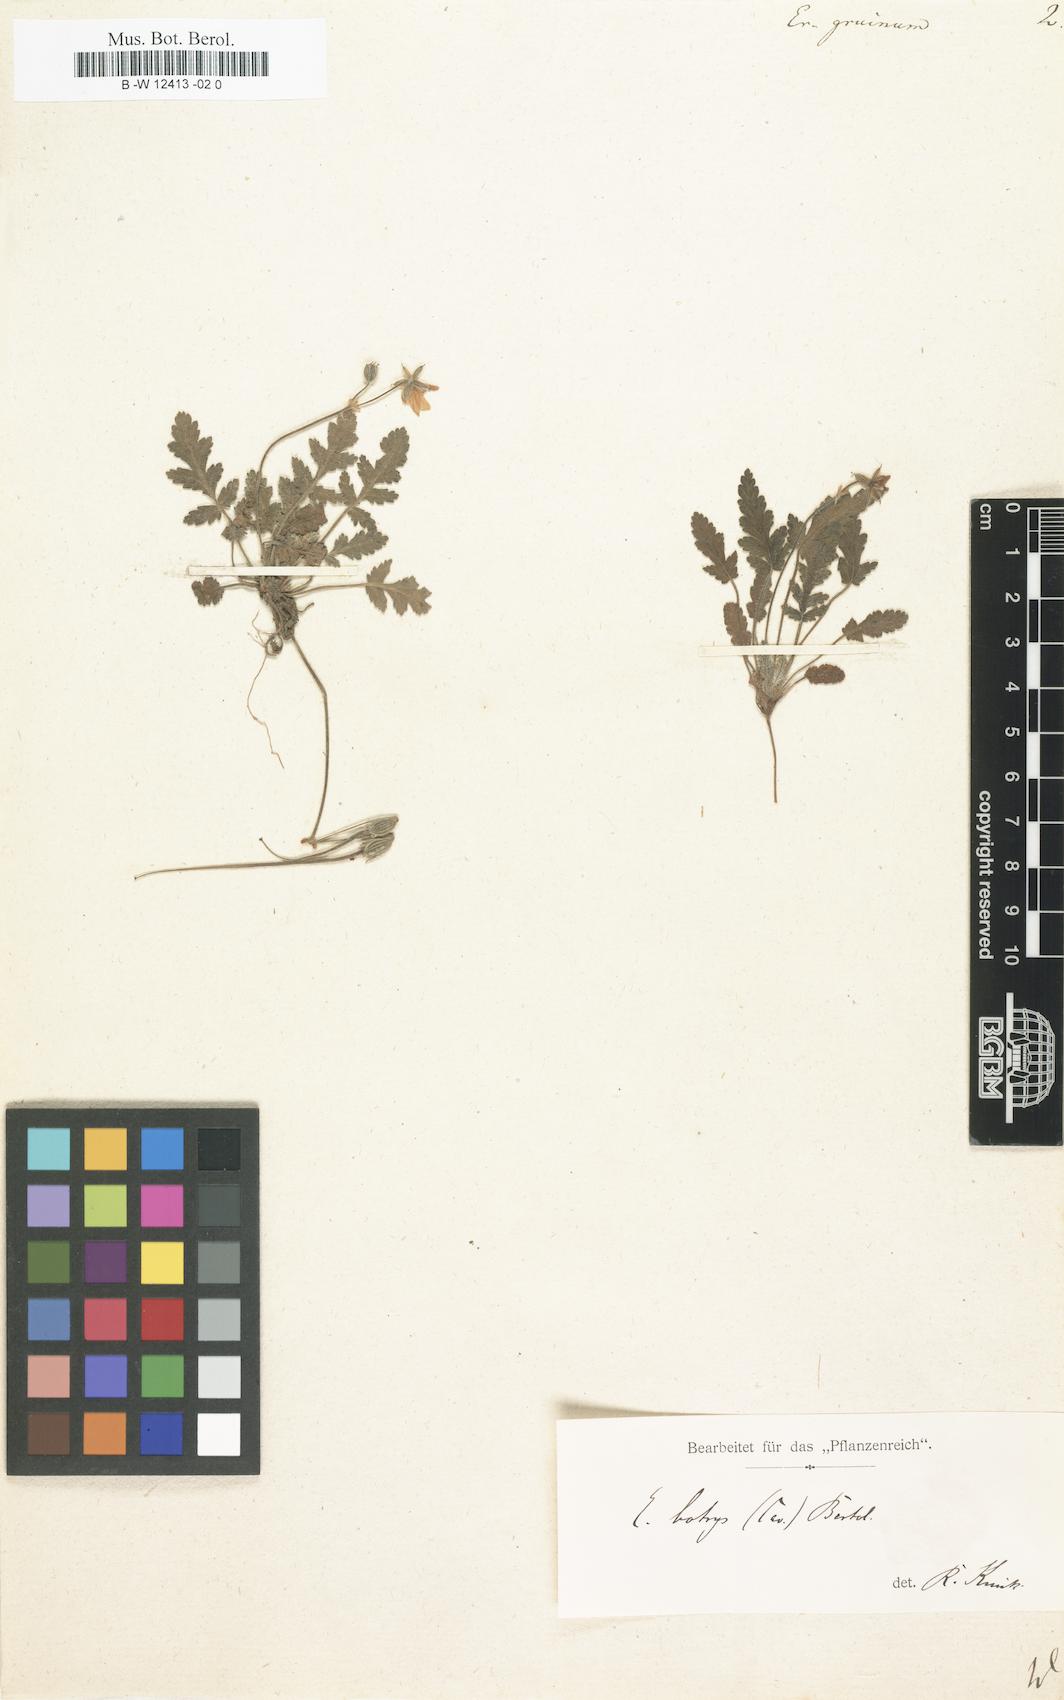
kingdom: Plantae
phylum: Tracheophyta
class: Magnoliopsida
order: Geraniales
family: Geraniaceae
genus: Erodium
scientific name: Erodium gruinum
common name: Iranian stork's bill
